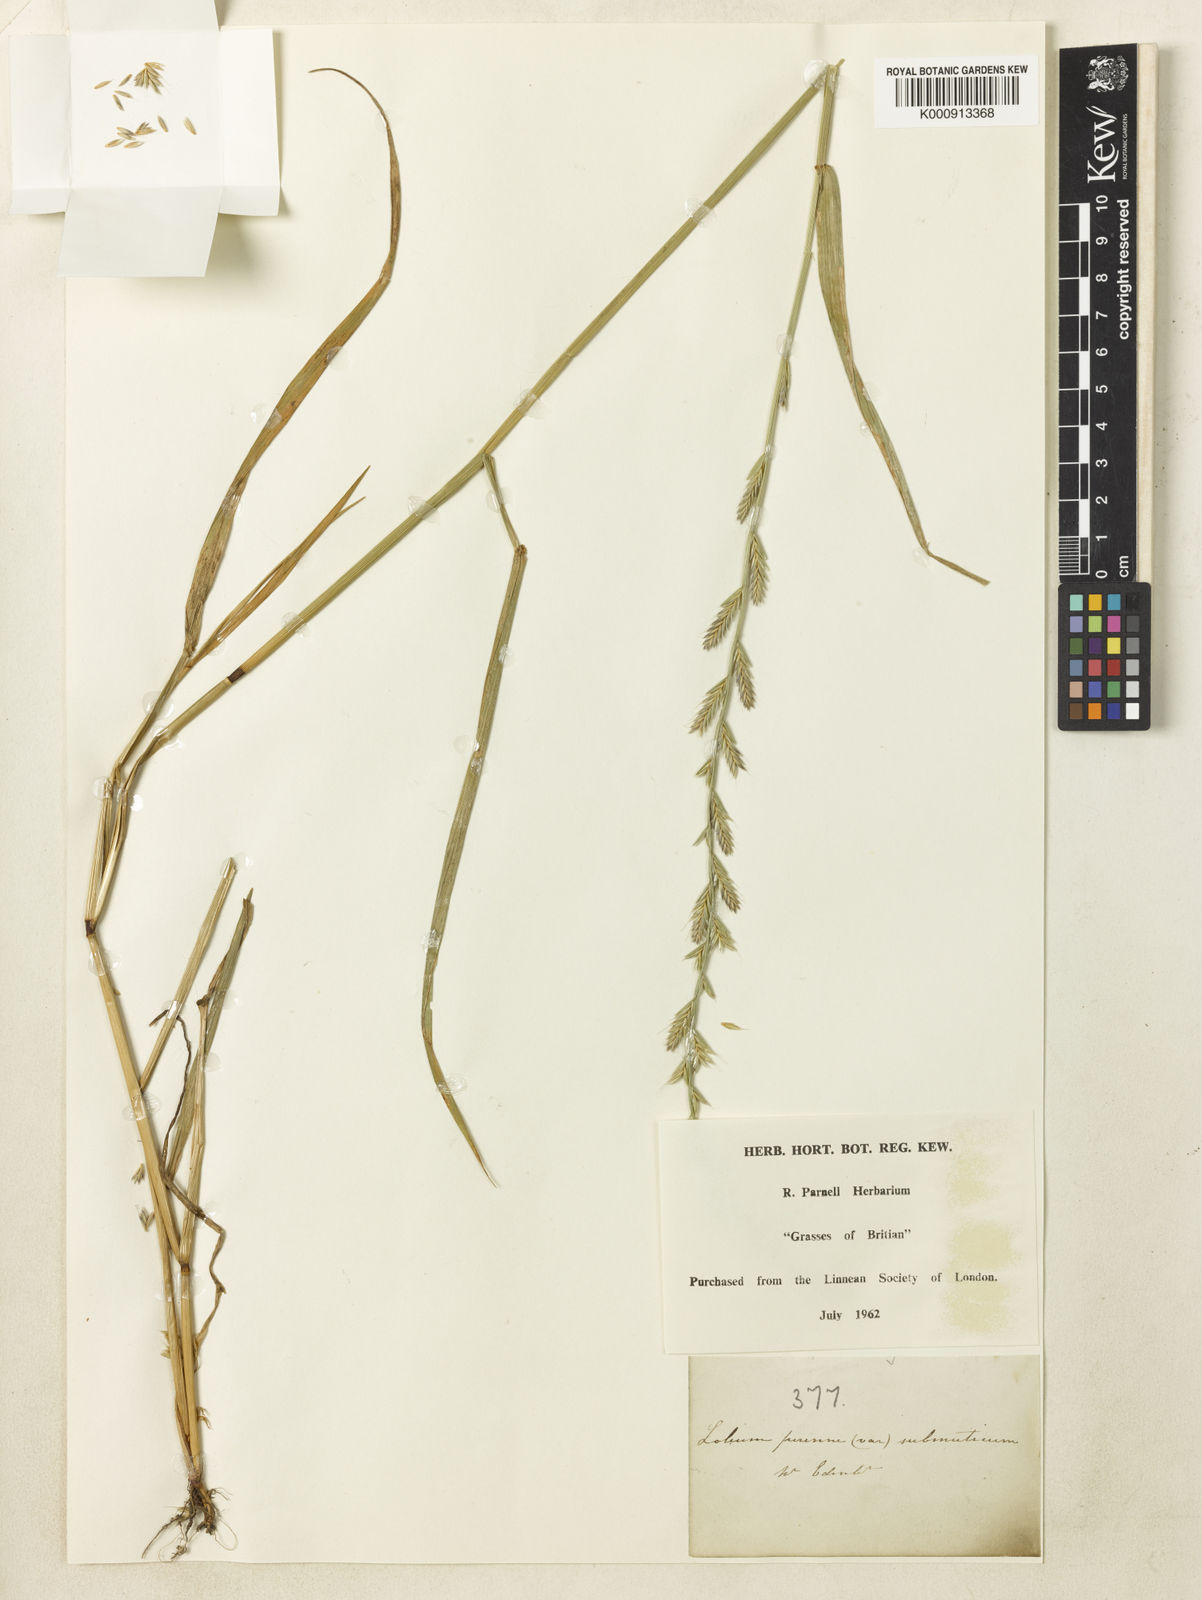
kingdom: Plantae
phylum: Tracheophyta
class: Liliopsida
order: Poales
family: Poaceae
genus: Lolium
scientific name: Lolium perenne
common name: Perennial ryegrass
